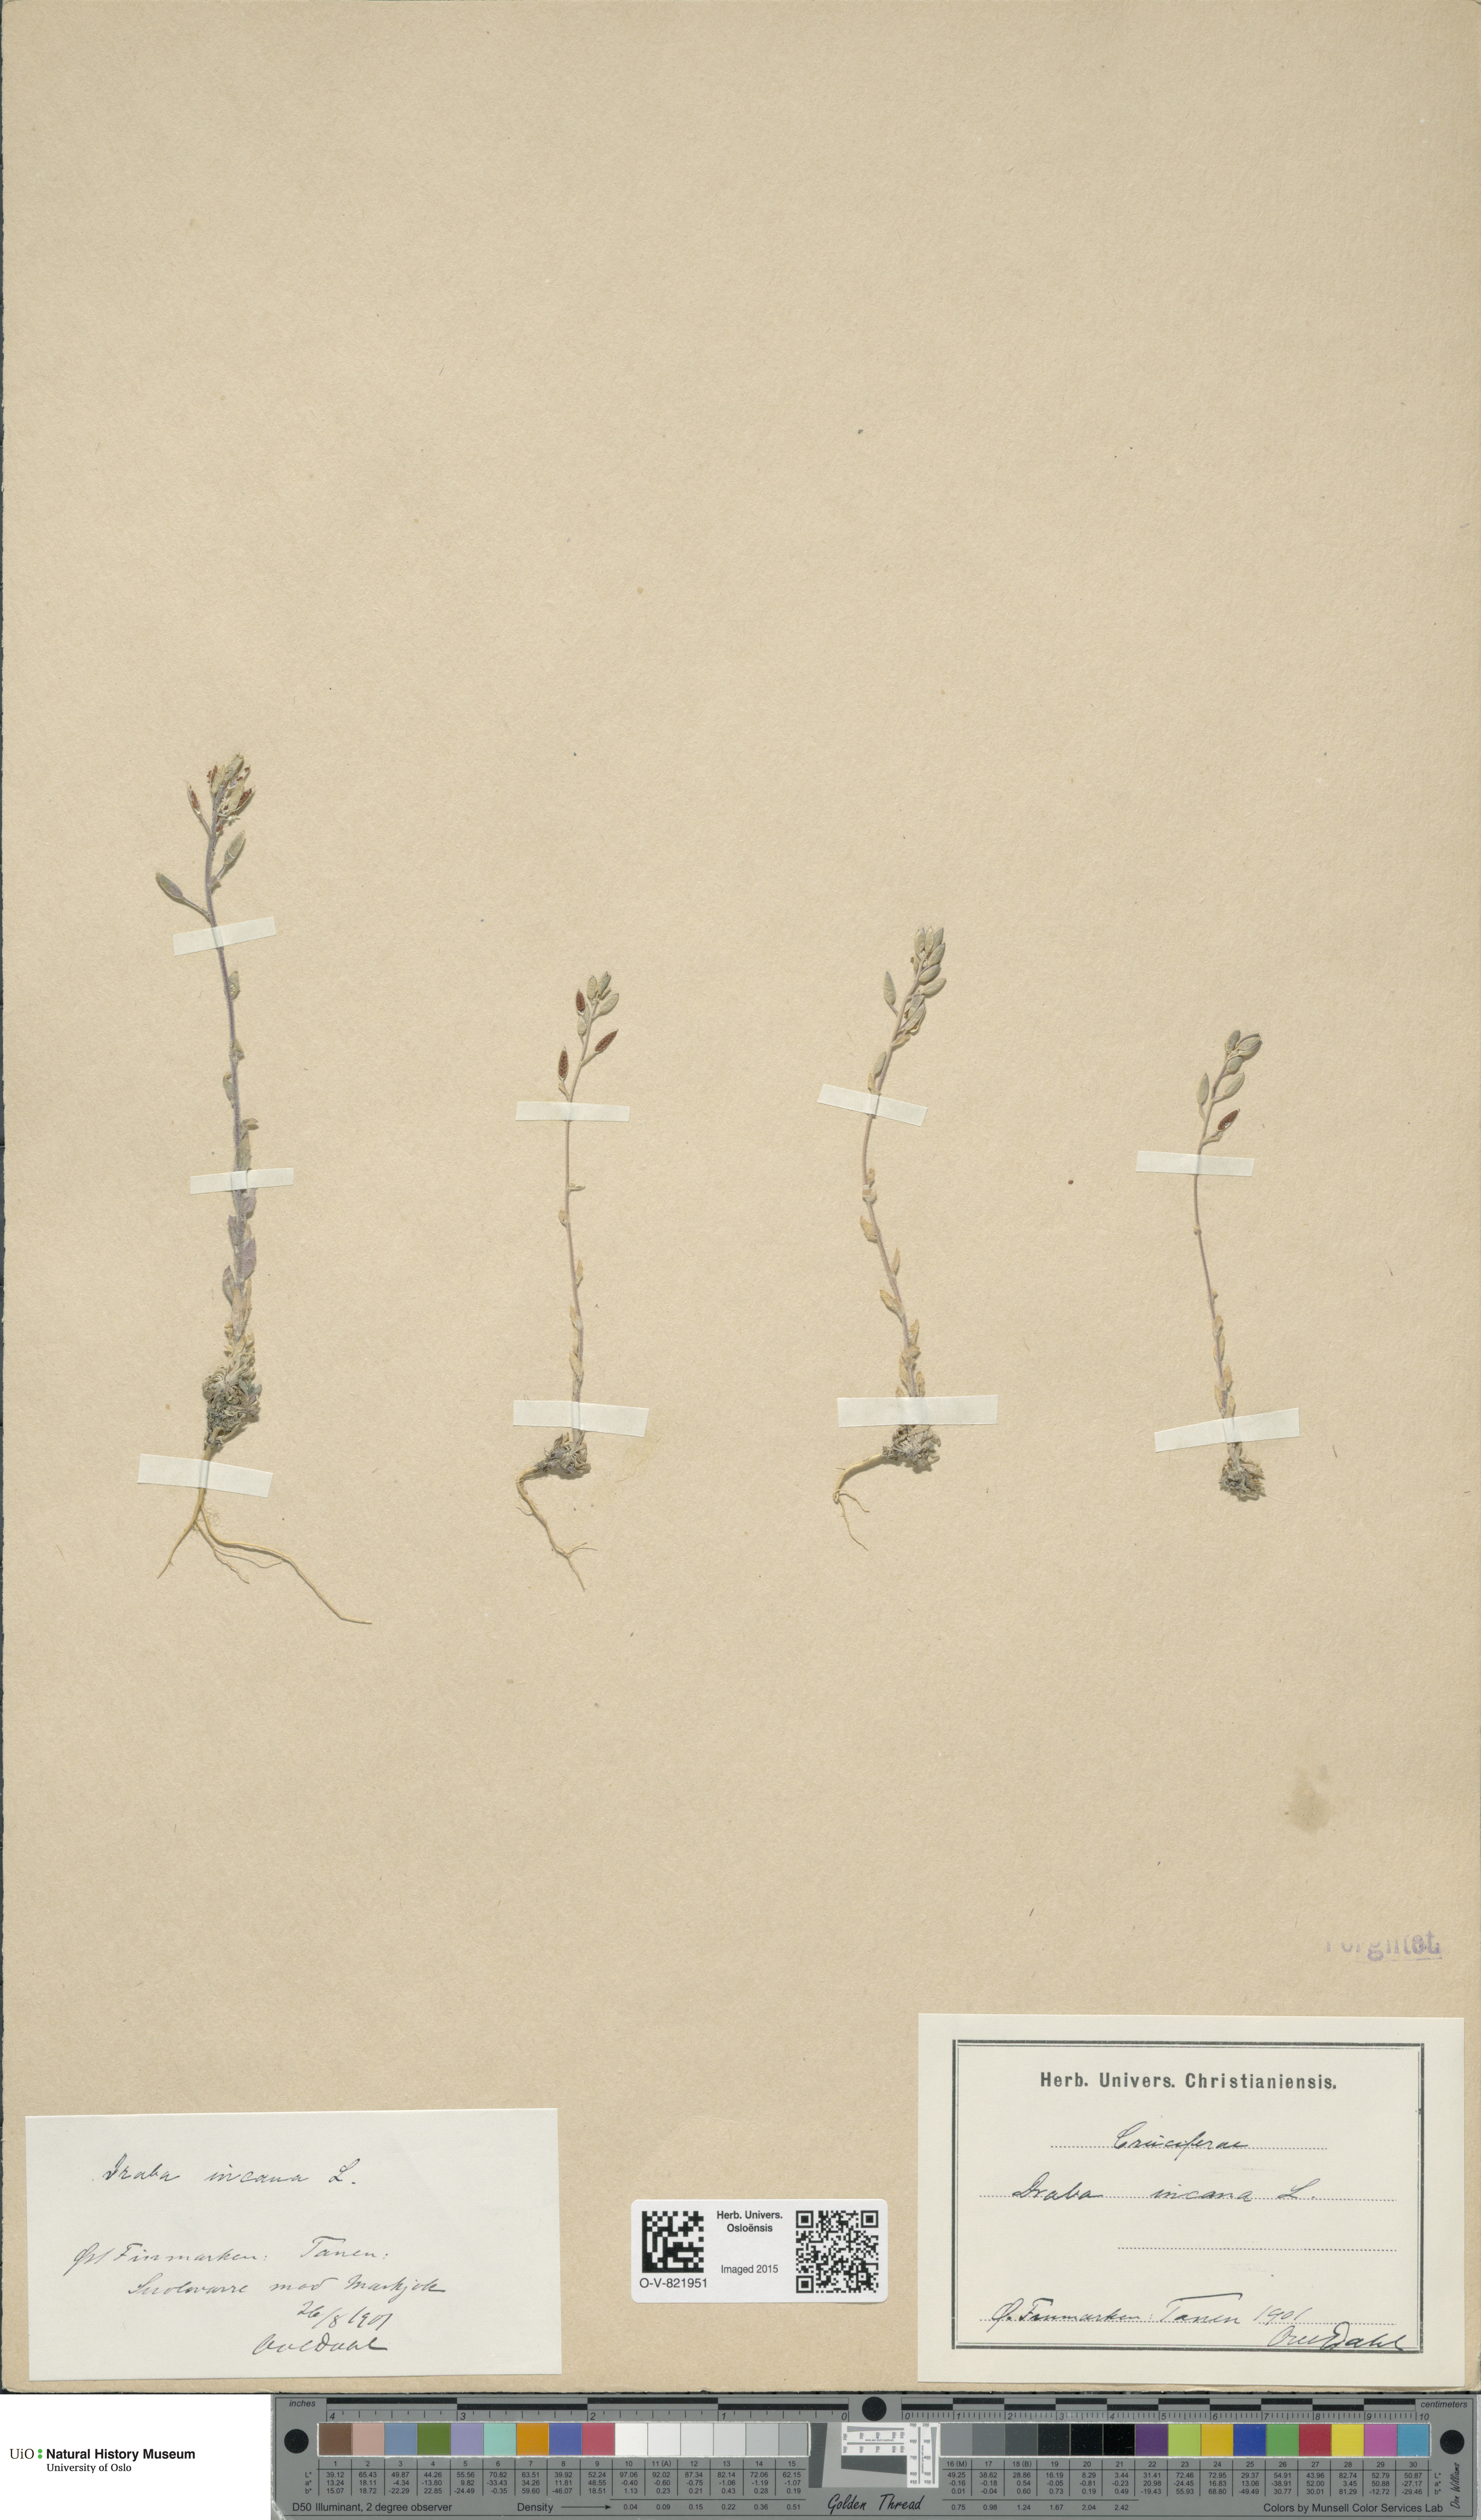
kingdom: Plantae
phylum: Tracheophyta
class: Magnoliopsida
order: Brassicales
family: Brassicaceae
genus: Draba
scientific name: Draba incana
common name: Hoary whitlow-grass
